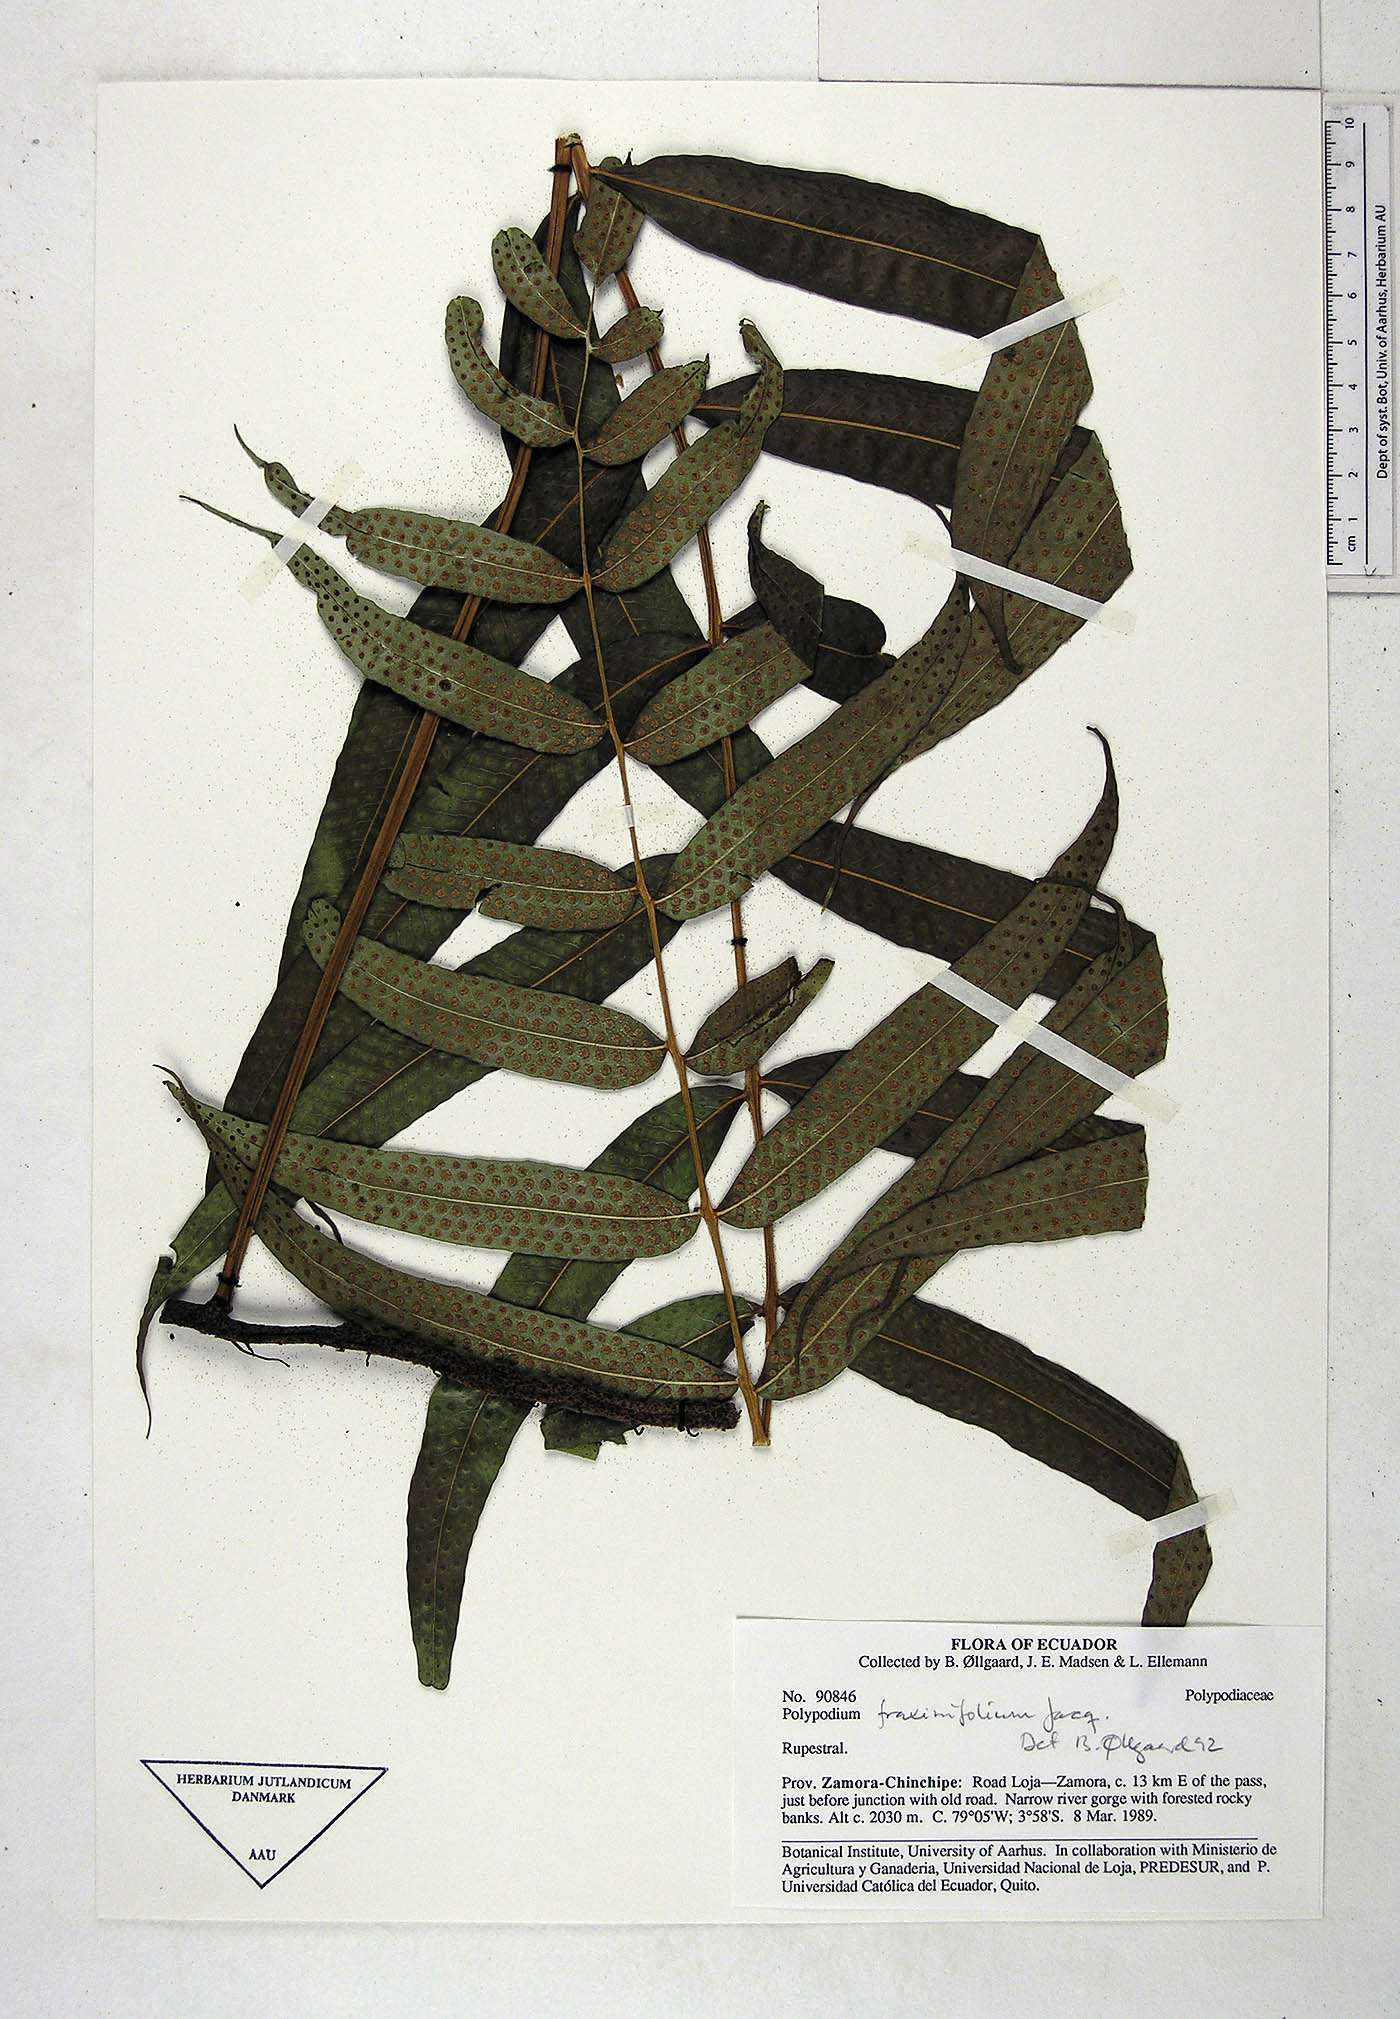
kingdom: Plantae
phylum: Tracheophyta
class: Polypodiopsida
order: Polypodiales
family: Polypodiaceae
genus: Serpocaulon
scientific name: Serpocaulon fraxinifolium
